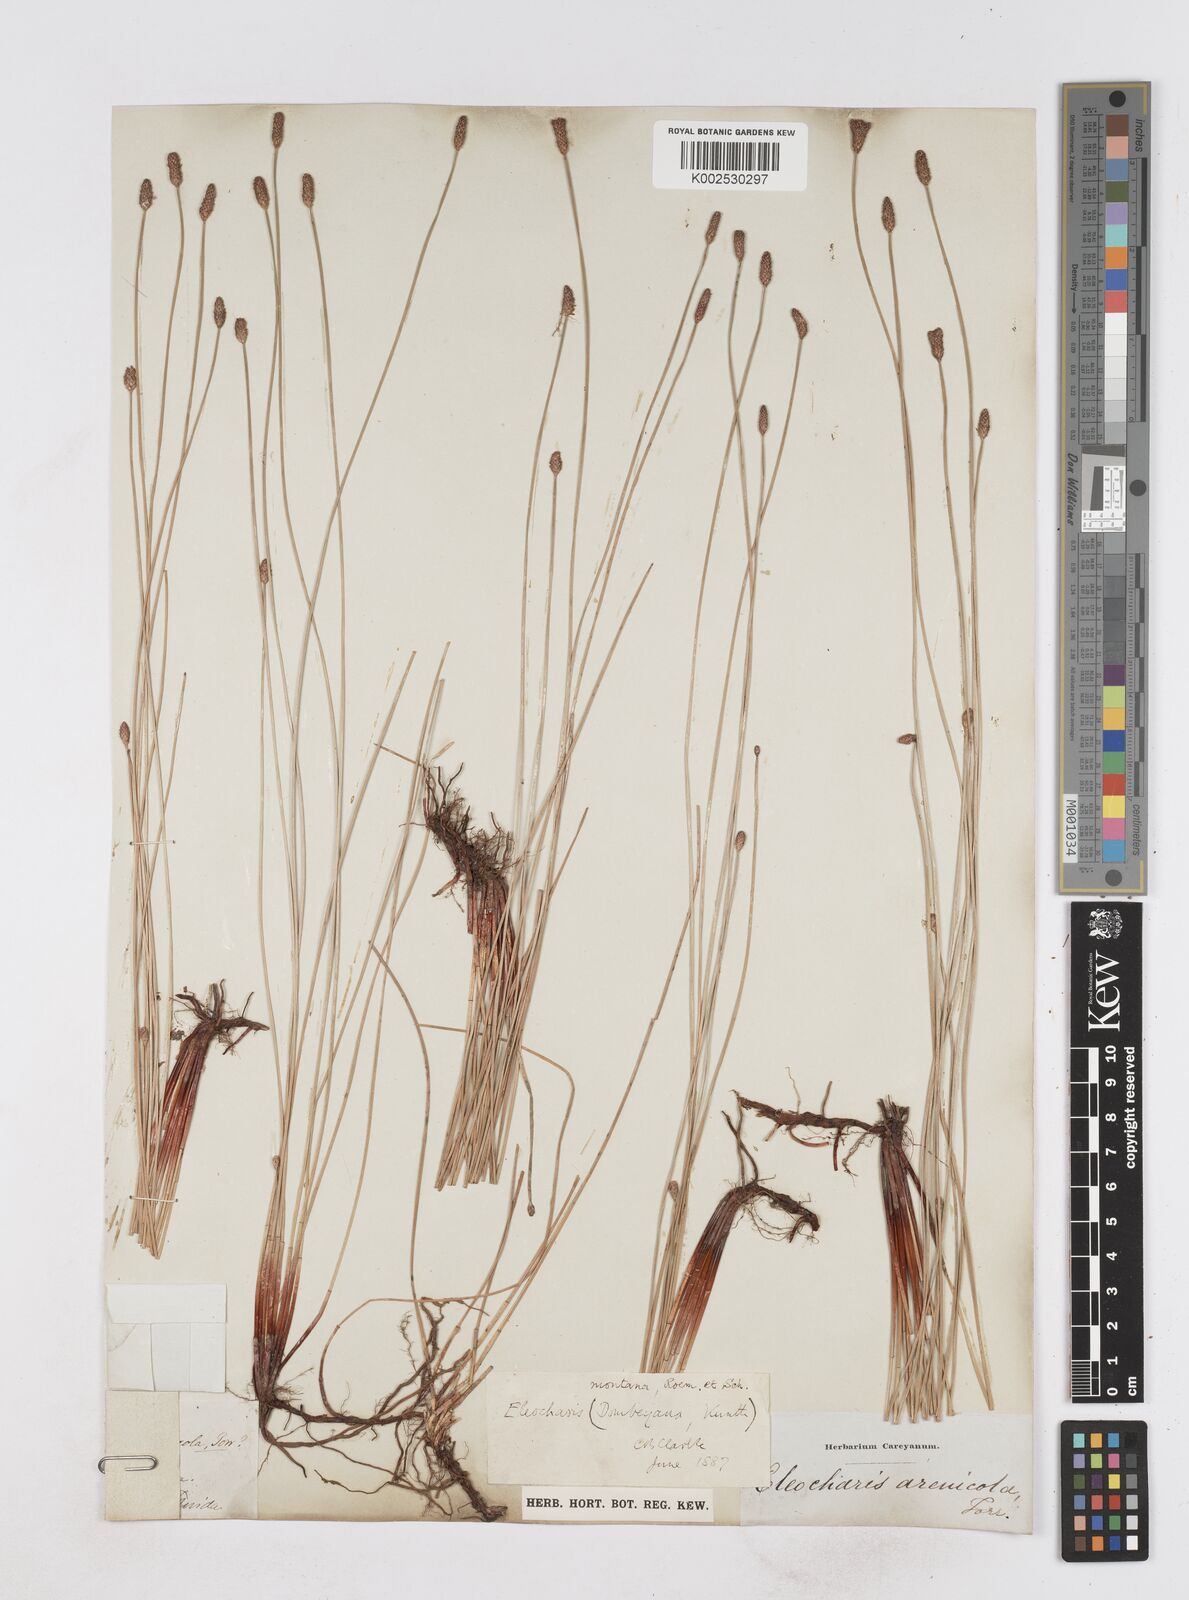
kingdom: Plantae
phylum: Tracheophyta
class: Liliopsida
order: Poales
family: Cyperaceae
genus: Eleocharis
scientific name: Eleocharis montana
